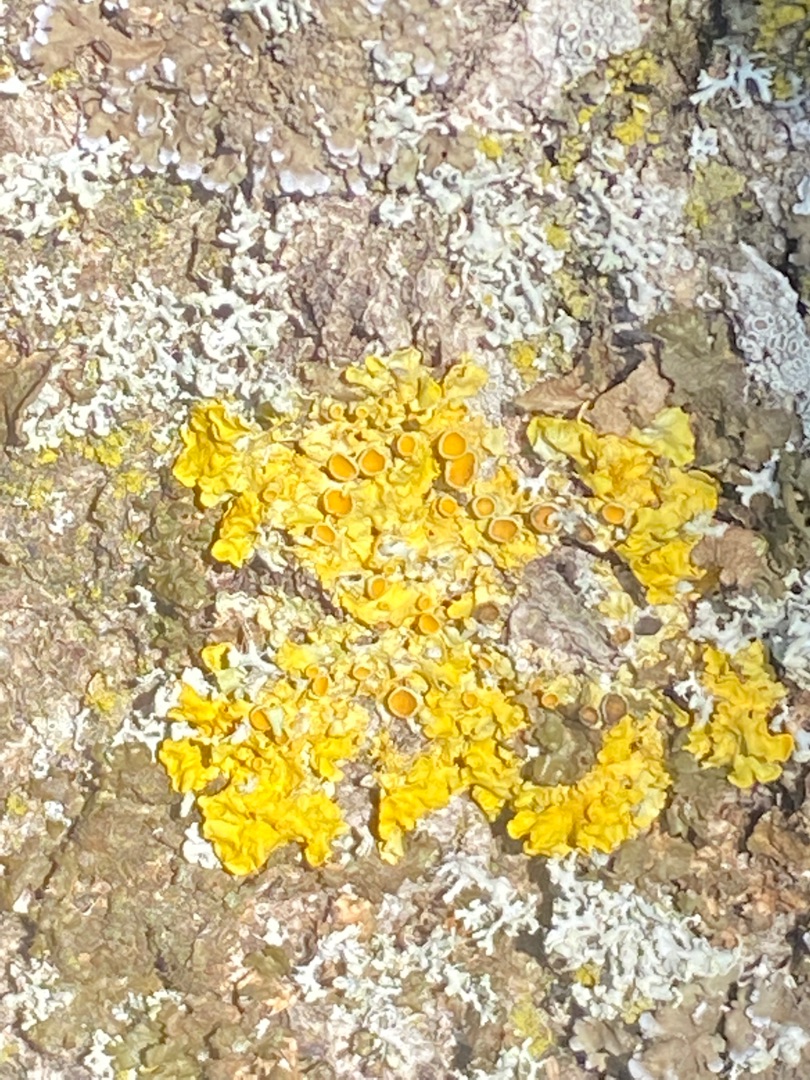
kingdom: Fungi
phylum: Ascomycota
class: Lecanoromycetes
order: Teloschistales
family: Teloschistaceae
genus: Xanthoria
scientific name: Xanthoria parietina
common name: Almindelig væggelav
